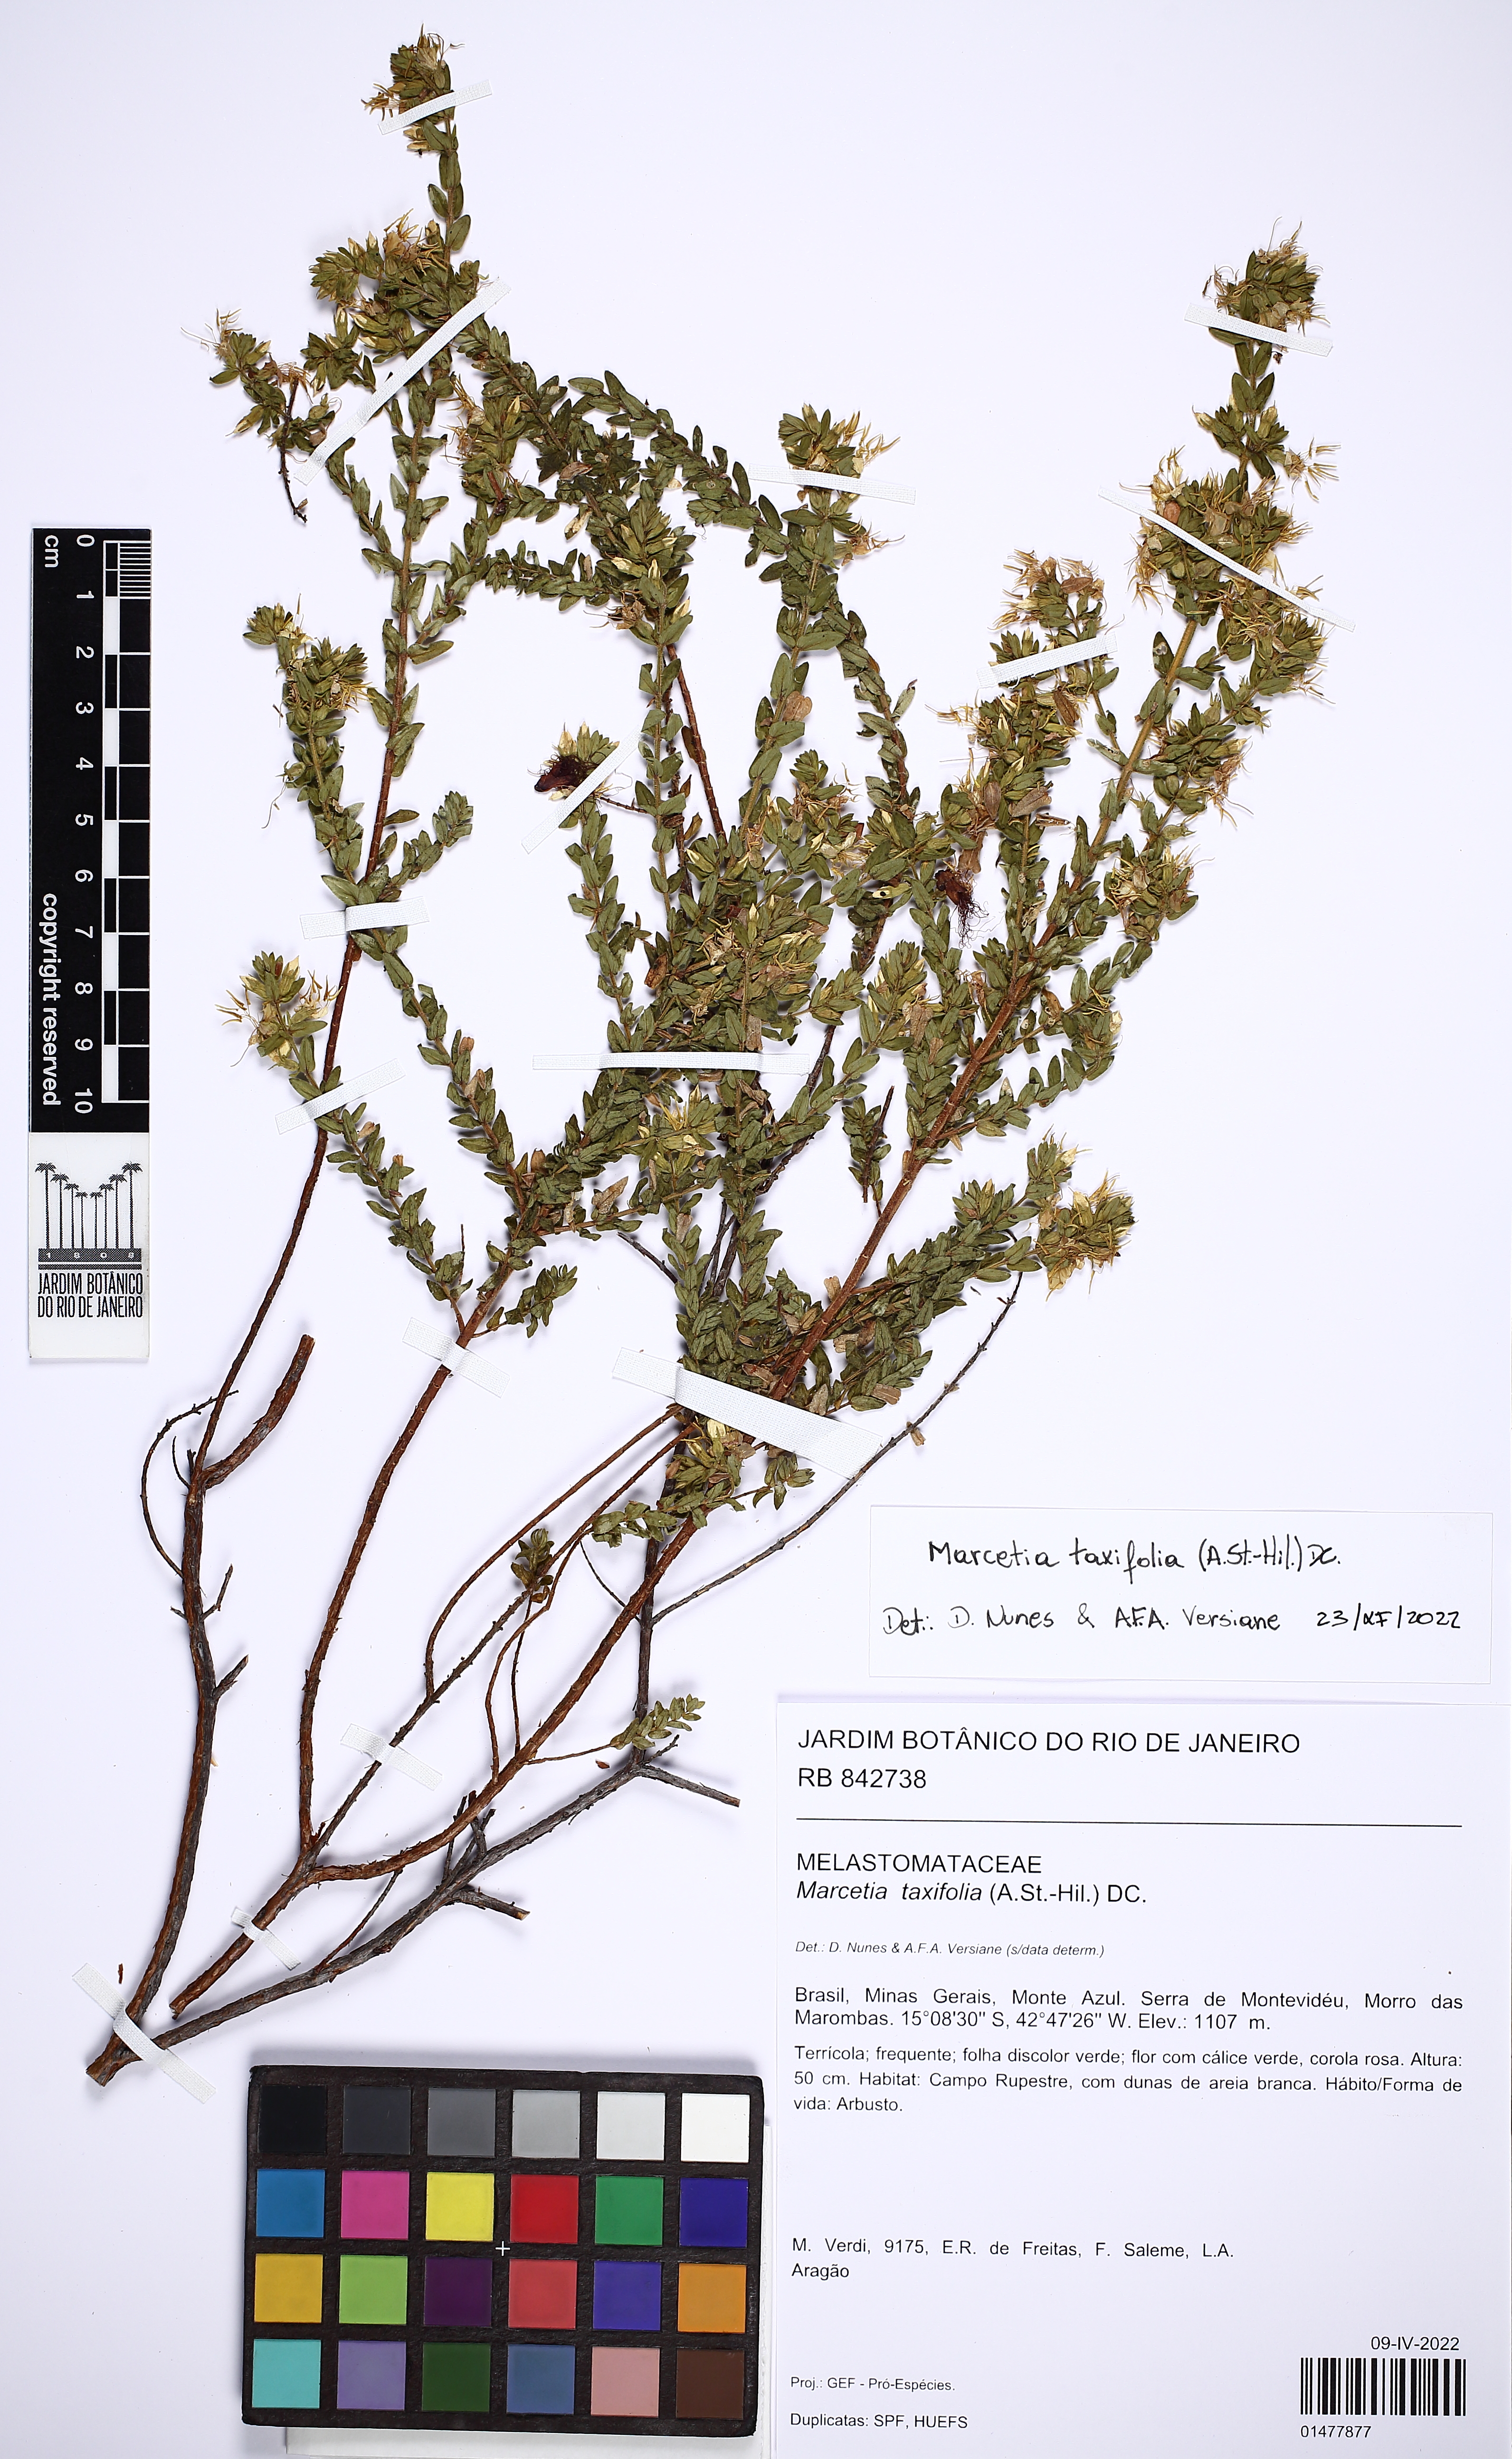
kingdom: Plantae
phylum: Tracheophyta
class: Magnoliopsida
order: Myrtales
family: Melastomataceae
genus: Marcetia
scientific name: Marcetia taxifolia
